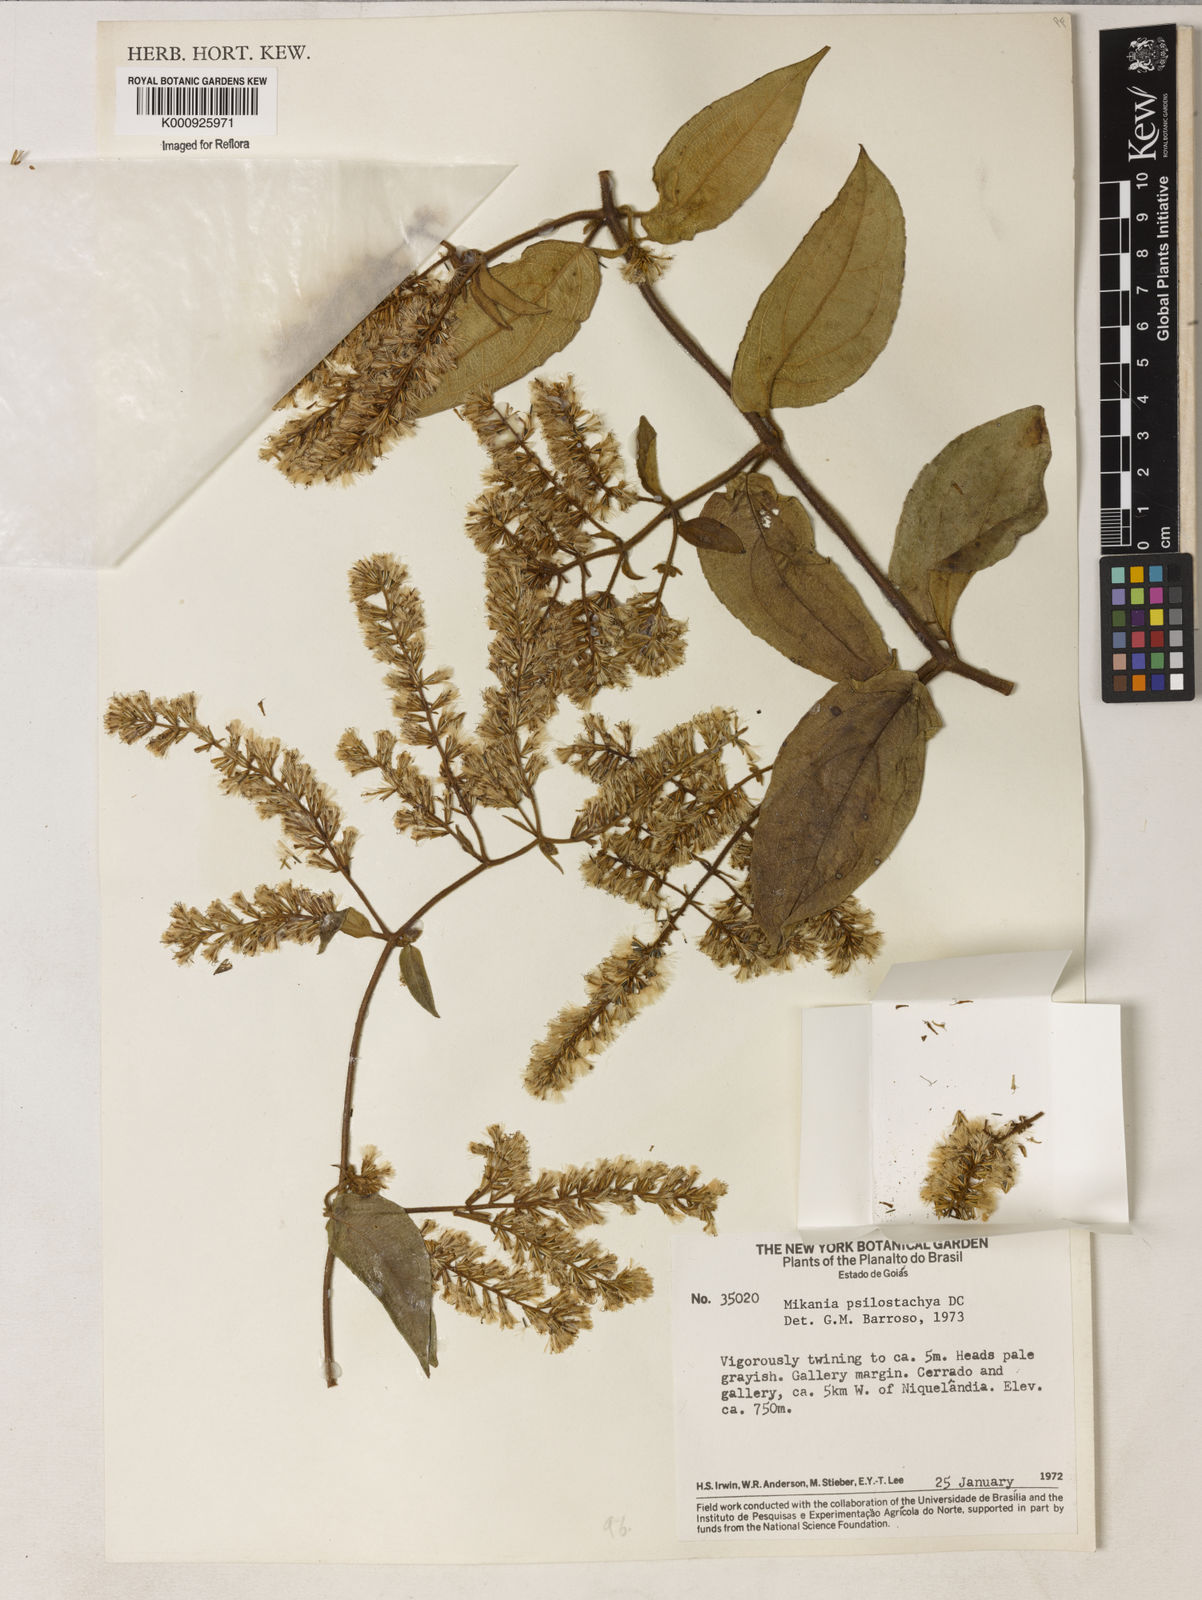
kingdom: Plantae
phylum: Tracheophyta
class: Magnoliopsida
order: Asterales
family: Asteraceae
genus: Mikania
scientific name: Mikania psilostachya
